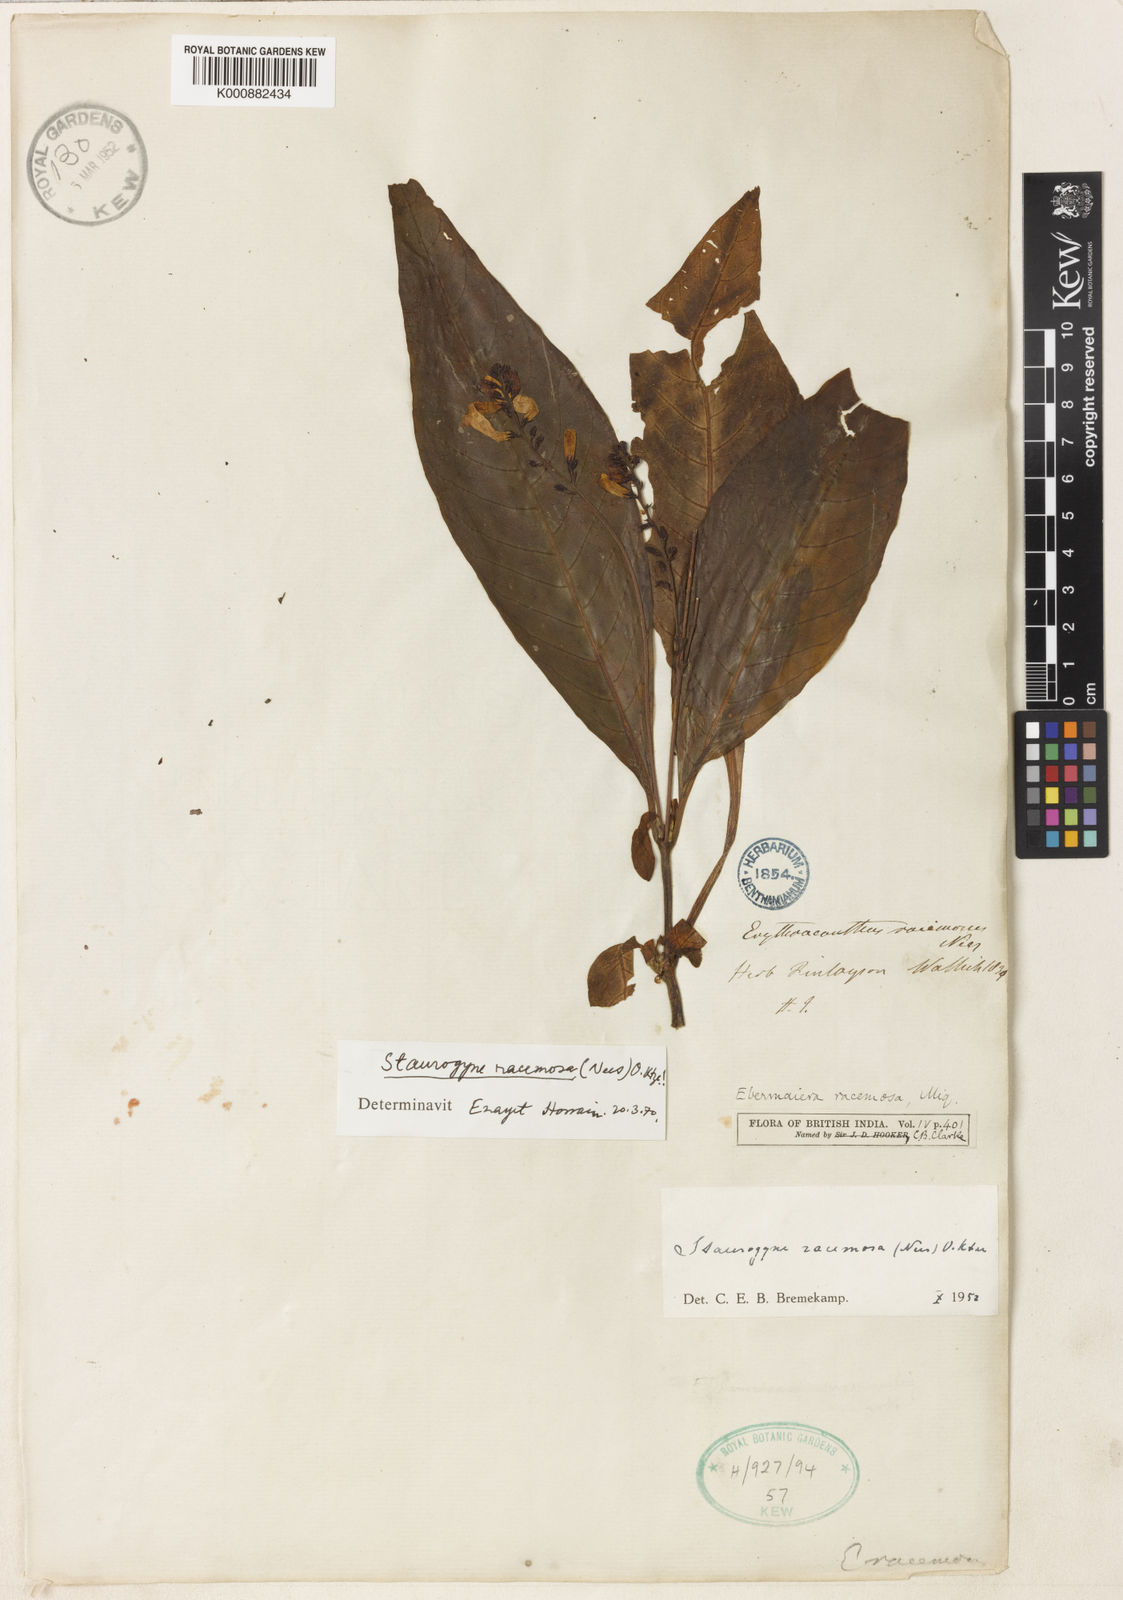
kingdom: Plantae
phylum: Tracheophyta
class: Magnoliopsida
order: Lamiales
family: Acanthaceae
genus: Staurogyne
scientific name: Staurogyne racemosa
